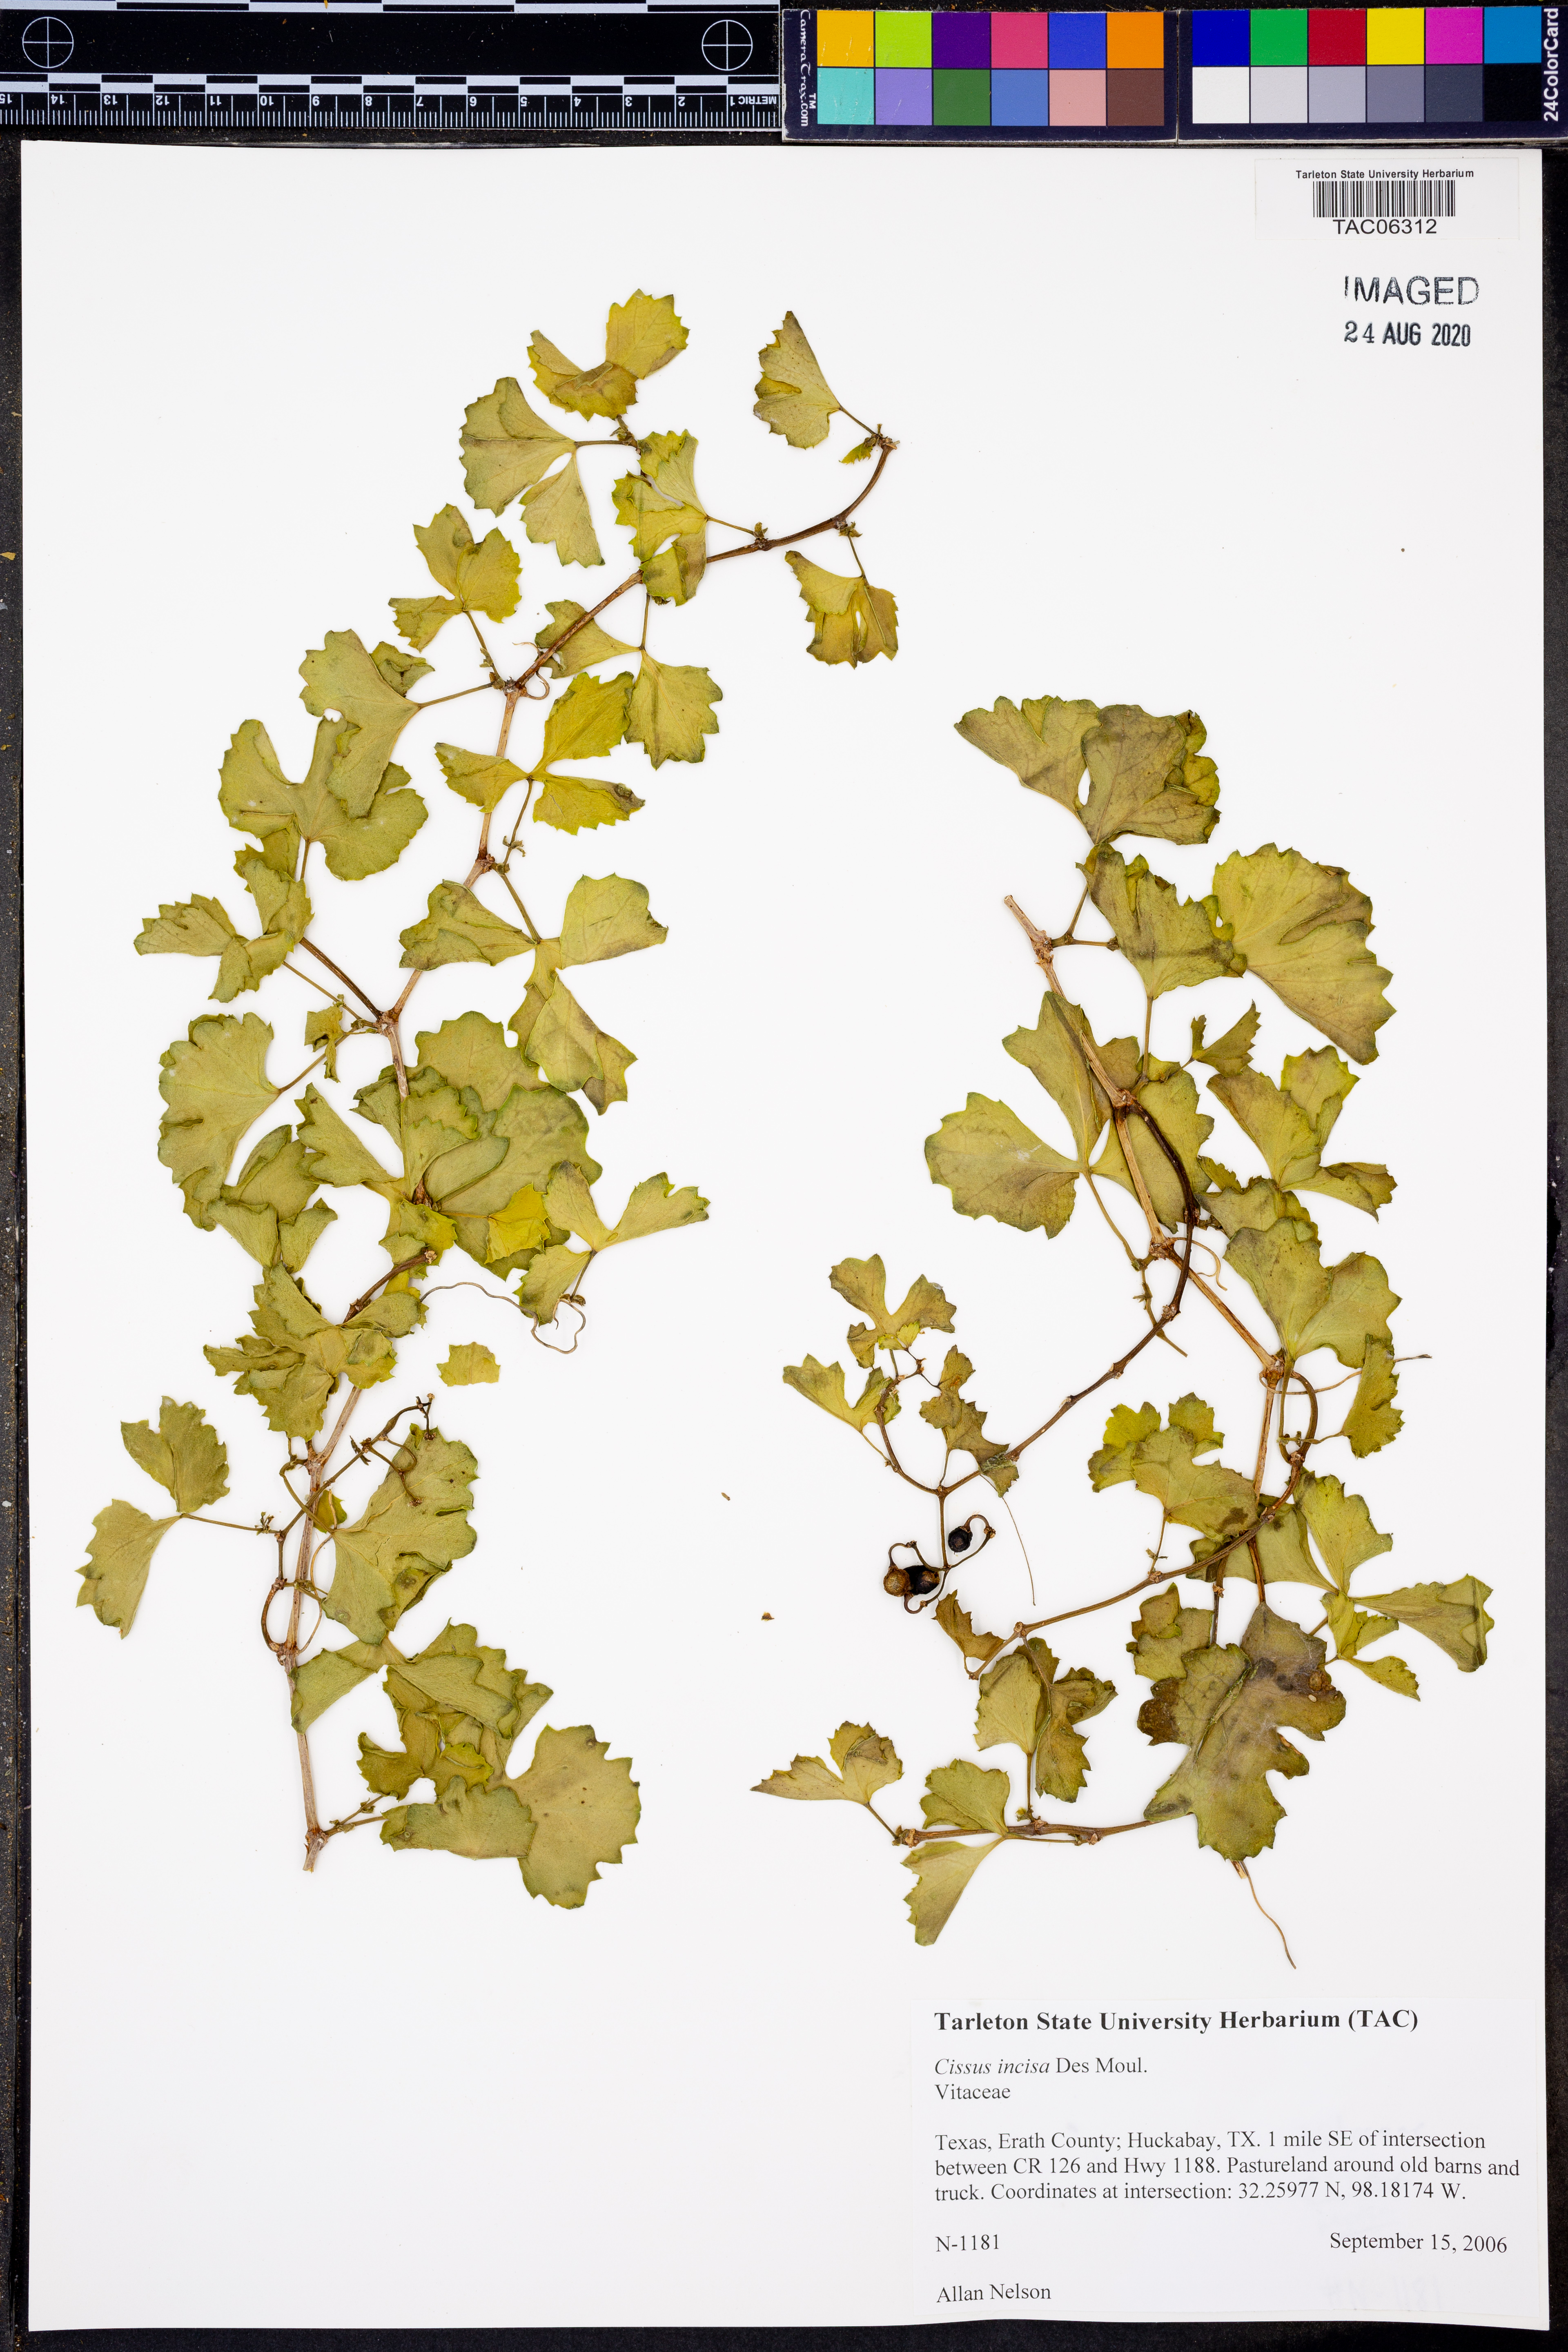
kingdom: Plantae
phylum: Tracheophyta
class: Magnoliopsida
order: Vitales
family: Vitaceae
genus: Cissus
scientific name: Cissus trifoliata
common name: Vine-sorrel
